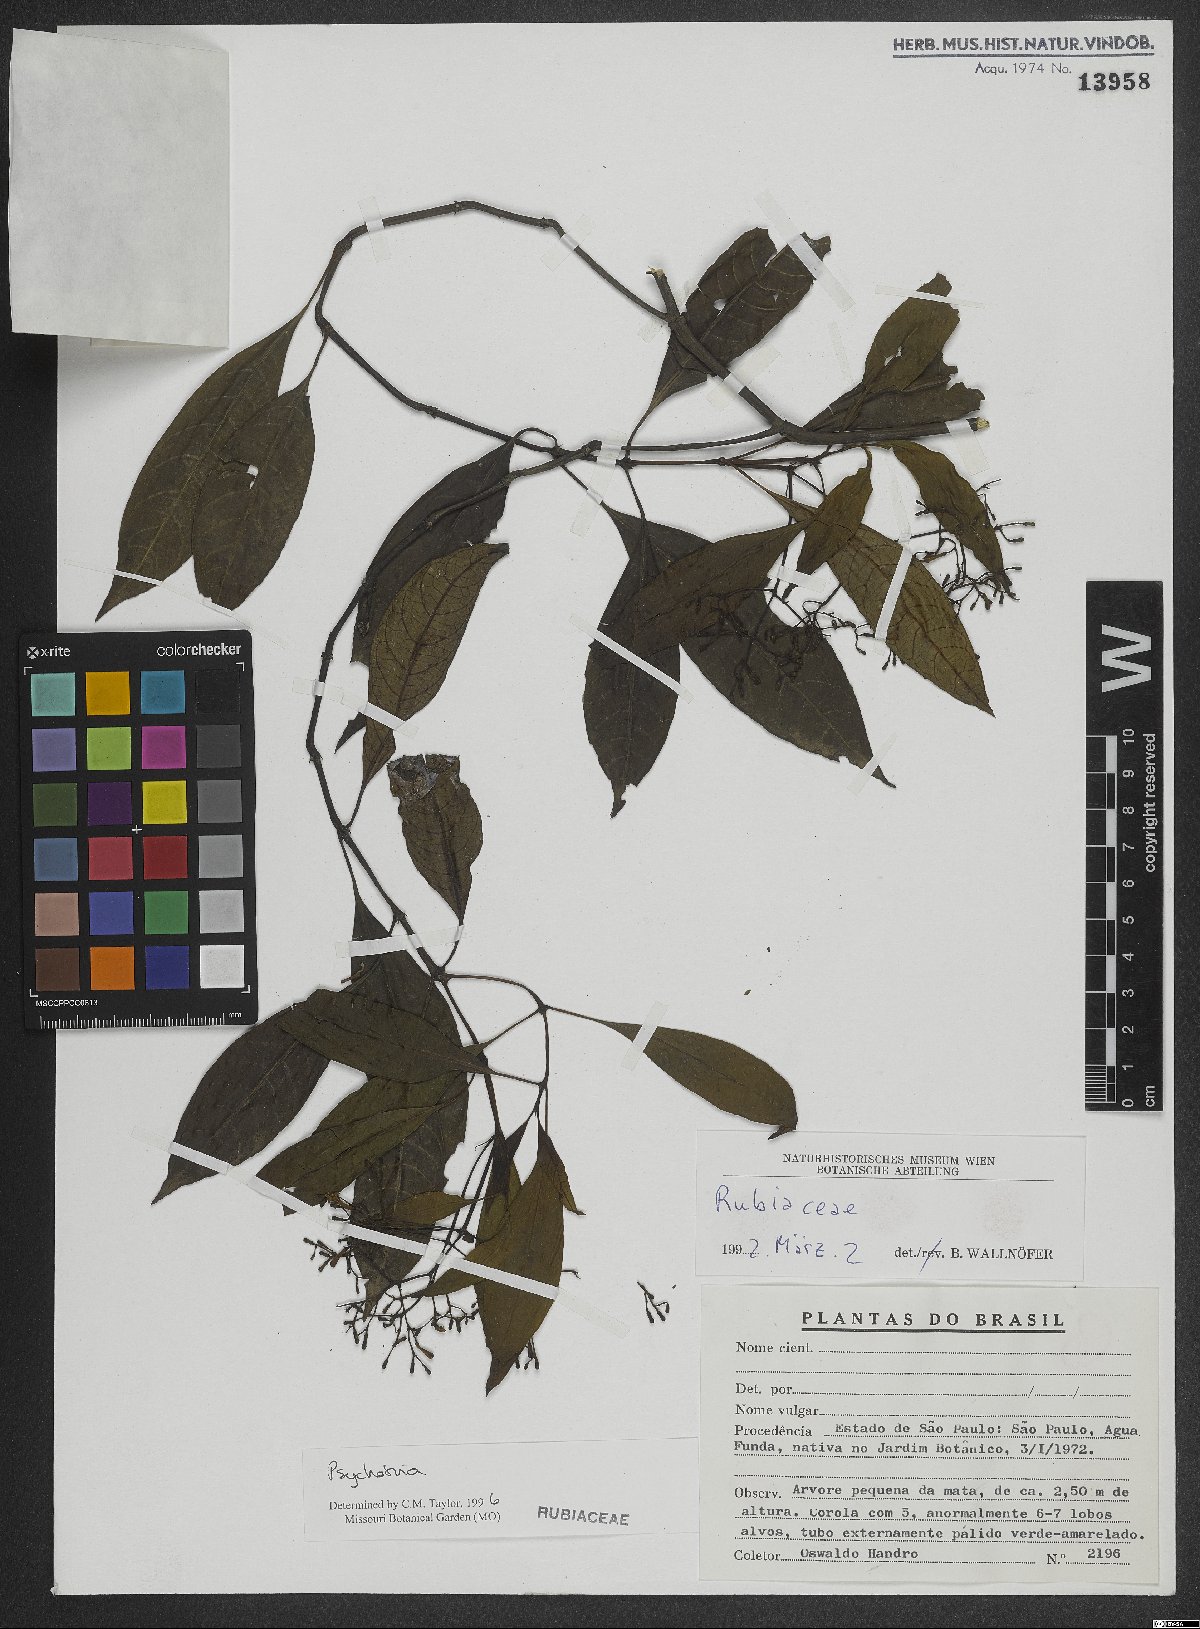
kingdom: Plantae
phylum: Tracheophyta
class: Magnoliopsida
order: Gentianales
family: Rubiaceae
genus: Psychotria
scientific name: Psychotria nemorosa
